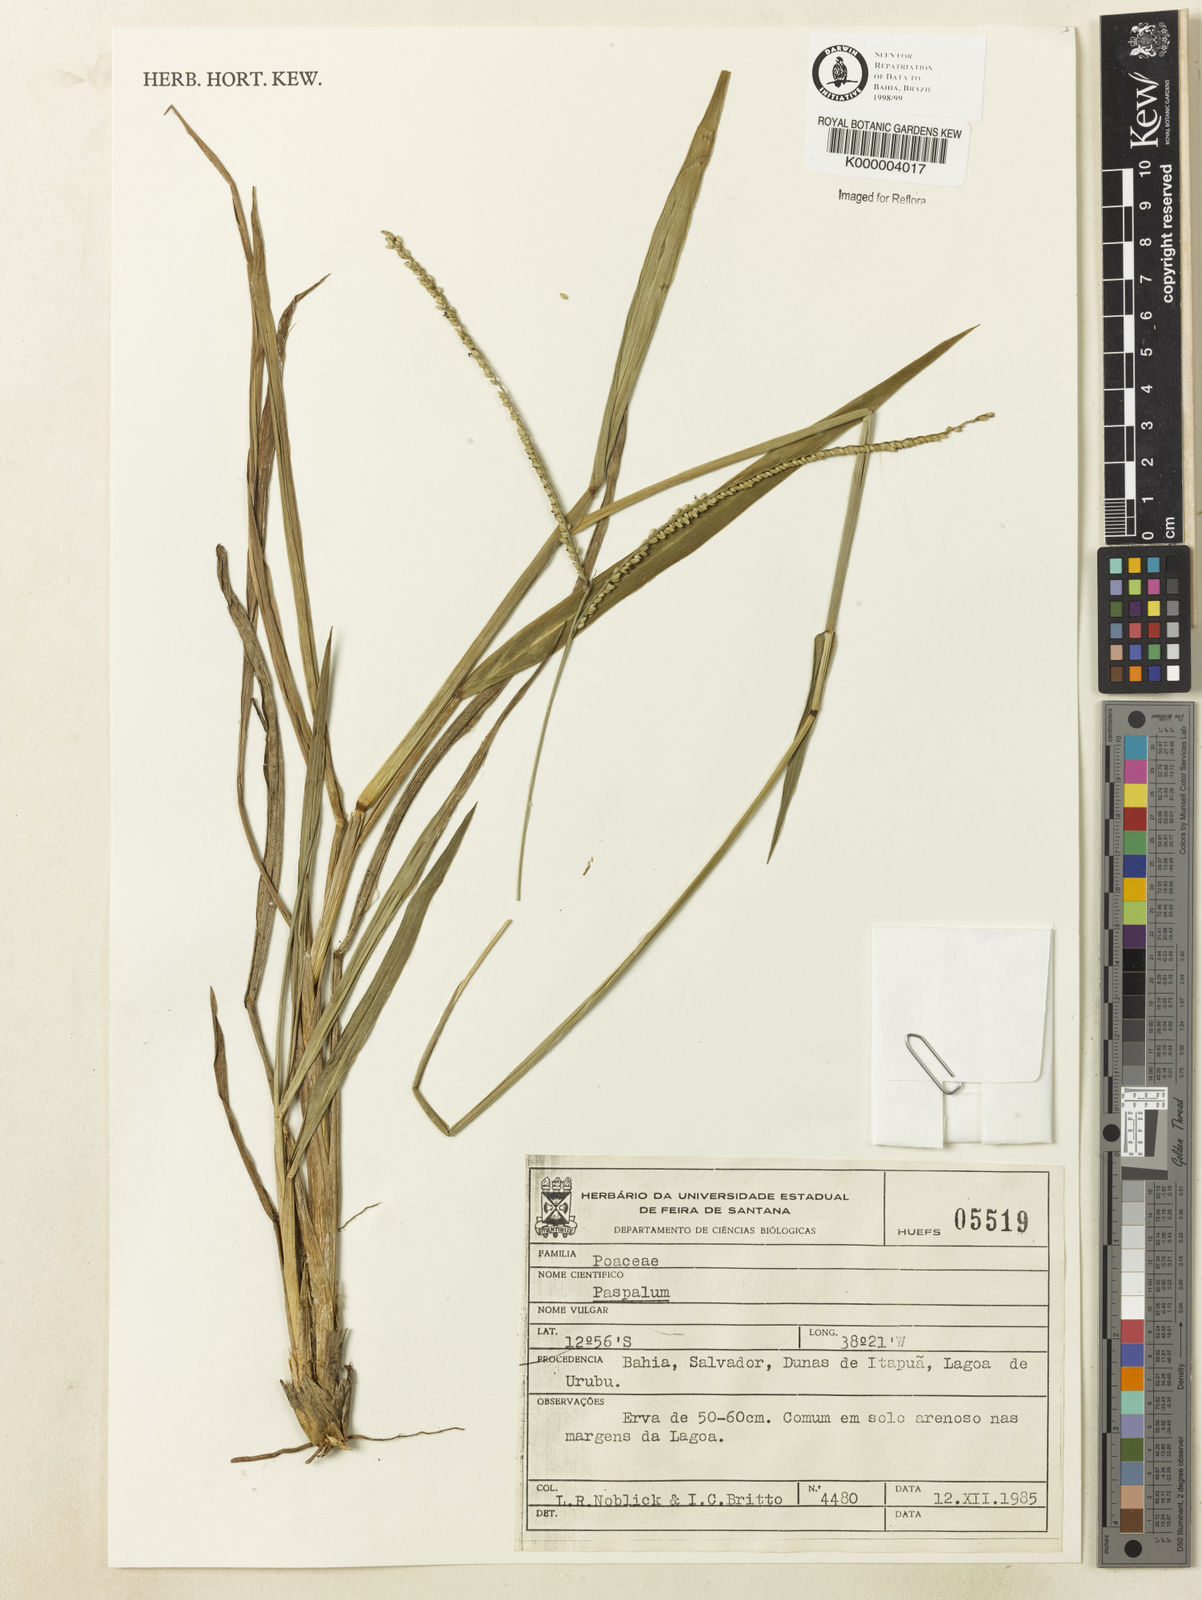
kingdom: Plantae
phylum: Tracheophyta
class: Liliopsida
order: Poales
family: Poaceae
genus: Paspalum
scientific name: Paspalum
